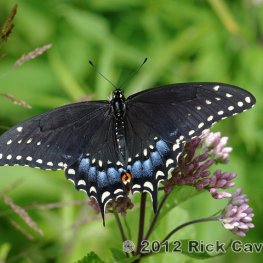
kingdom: Animalia
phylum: Arthropoda
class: Insecta
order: Lepidoptera
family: Papilionidae
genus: Papilio
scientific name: Papilio polyxenes
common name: Black Swallowtail
